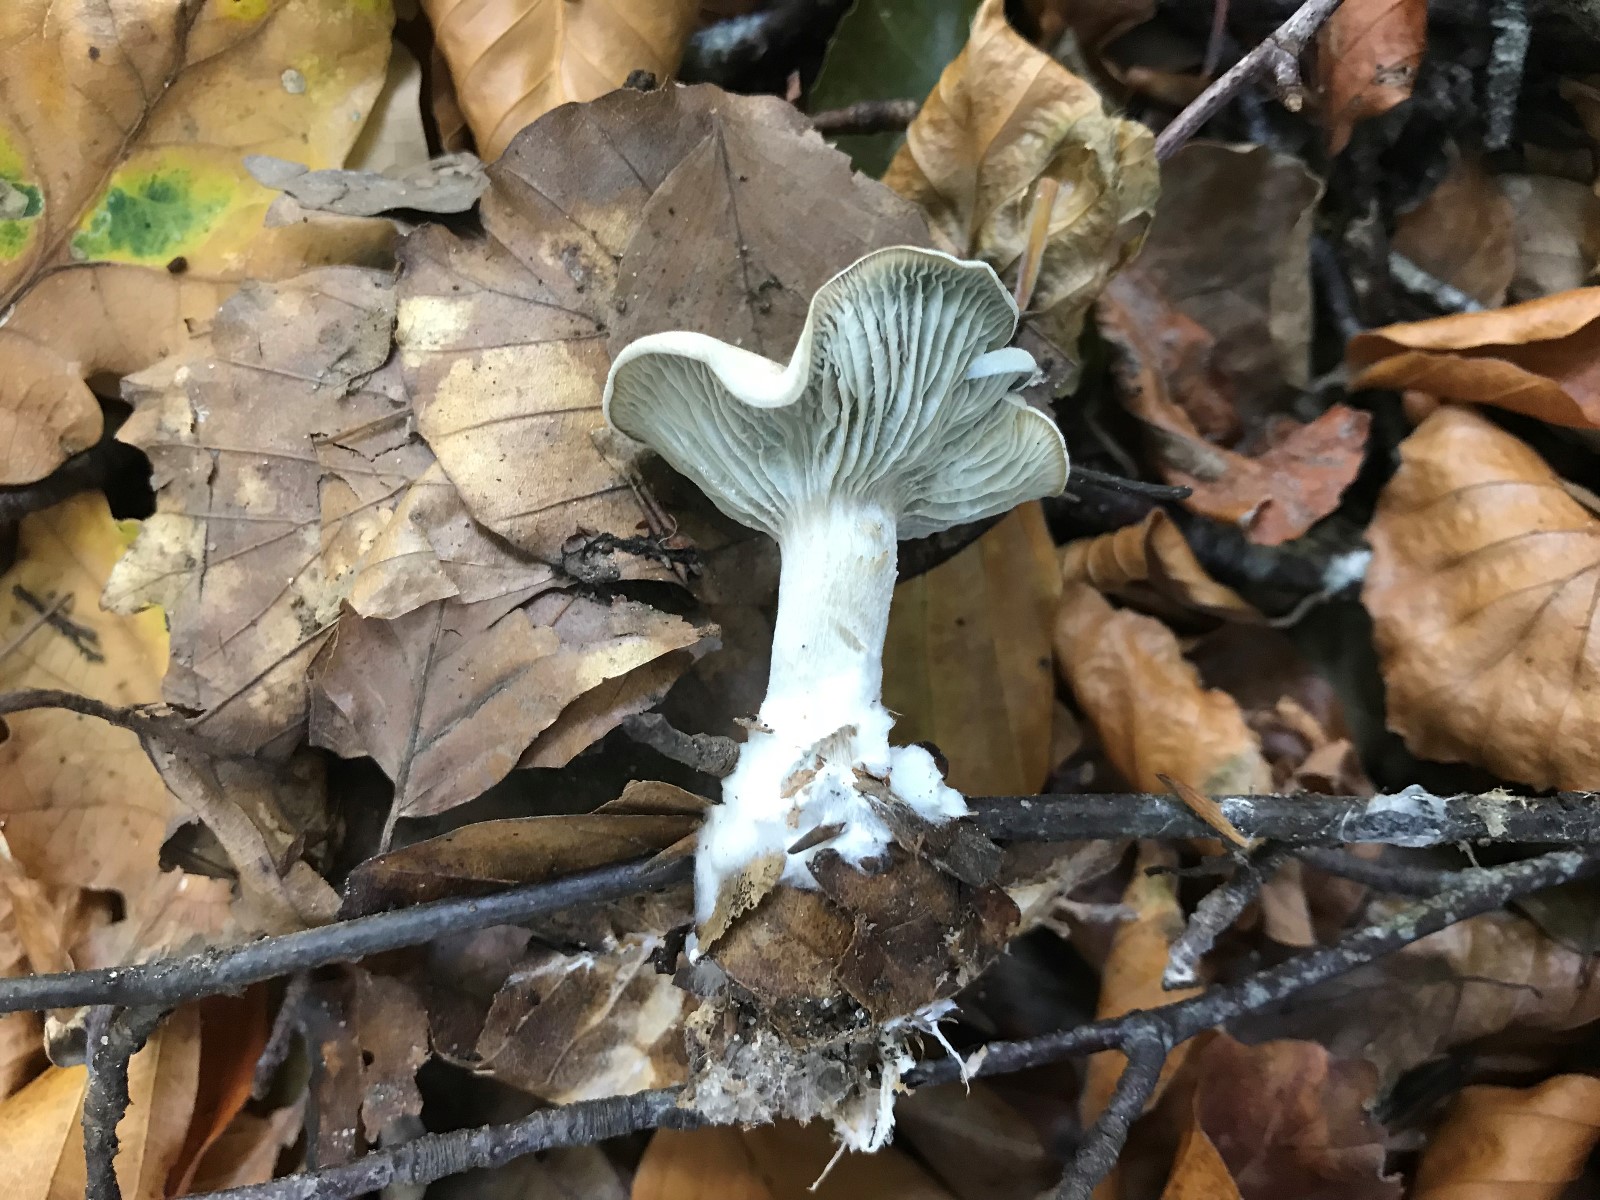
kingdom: Fungi
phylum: Basidiomycota
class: Agaricomycetes
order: Agaricales
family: Tricholomataceae
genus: Clitocybe
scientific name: Clitocybe odora
